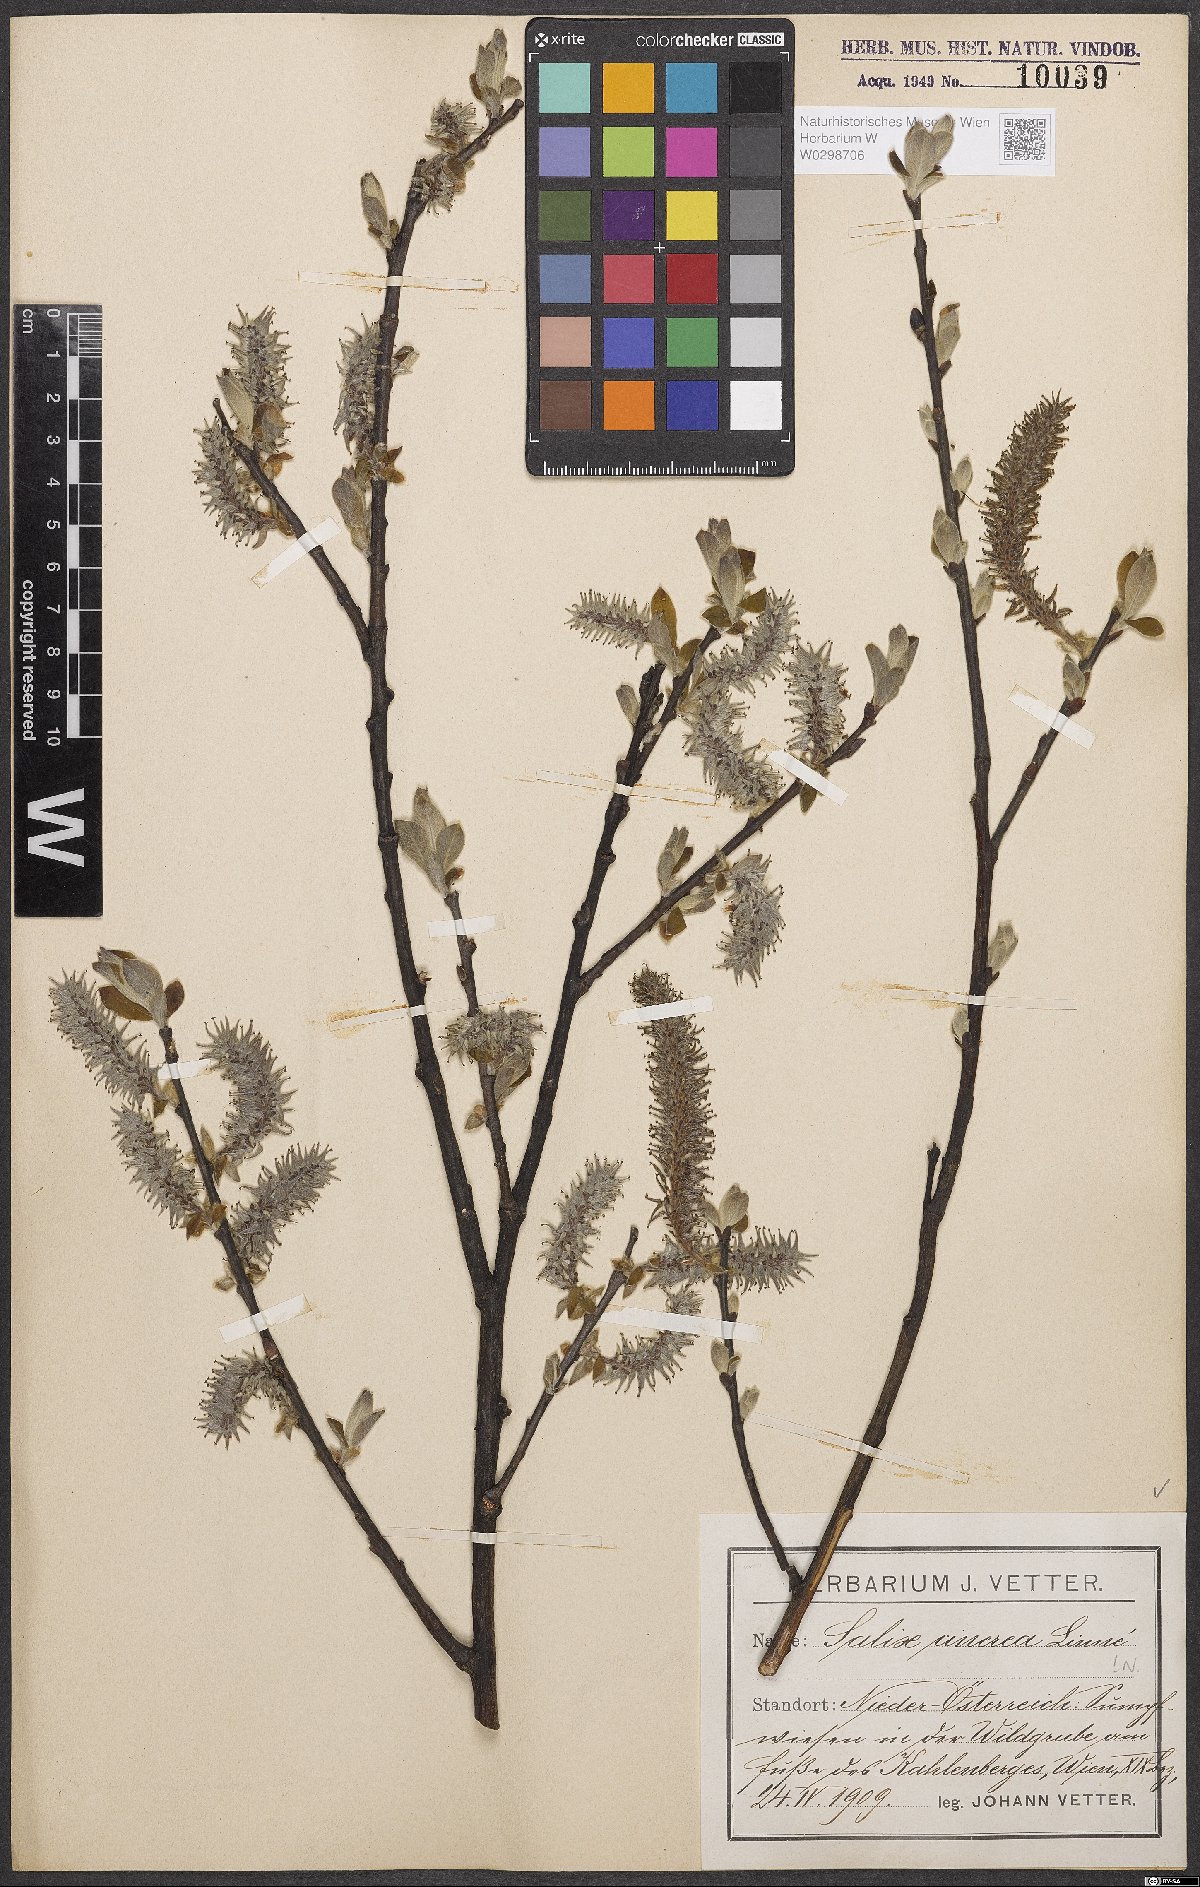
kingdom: Plantae
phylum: Tracheophyta
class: Magnoliopsida
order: Malpighiales
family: Salicaceae
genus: Salix
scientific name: Salix cinerea
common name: Common sallow
